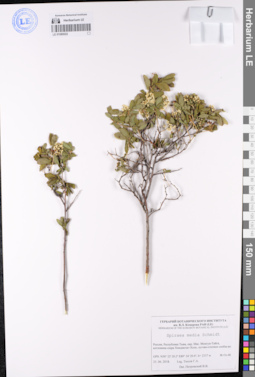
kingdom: Plantae
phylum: Tracheophyta
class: Magnoliopsida
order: Rosales
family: Rosaceae
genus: Spiraea
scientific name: Spiraea media
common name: Russian spiraea
